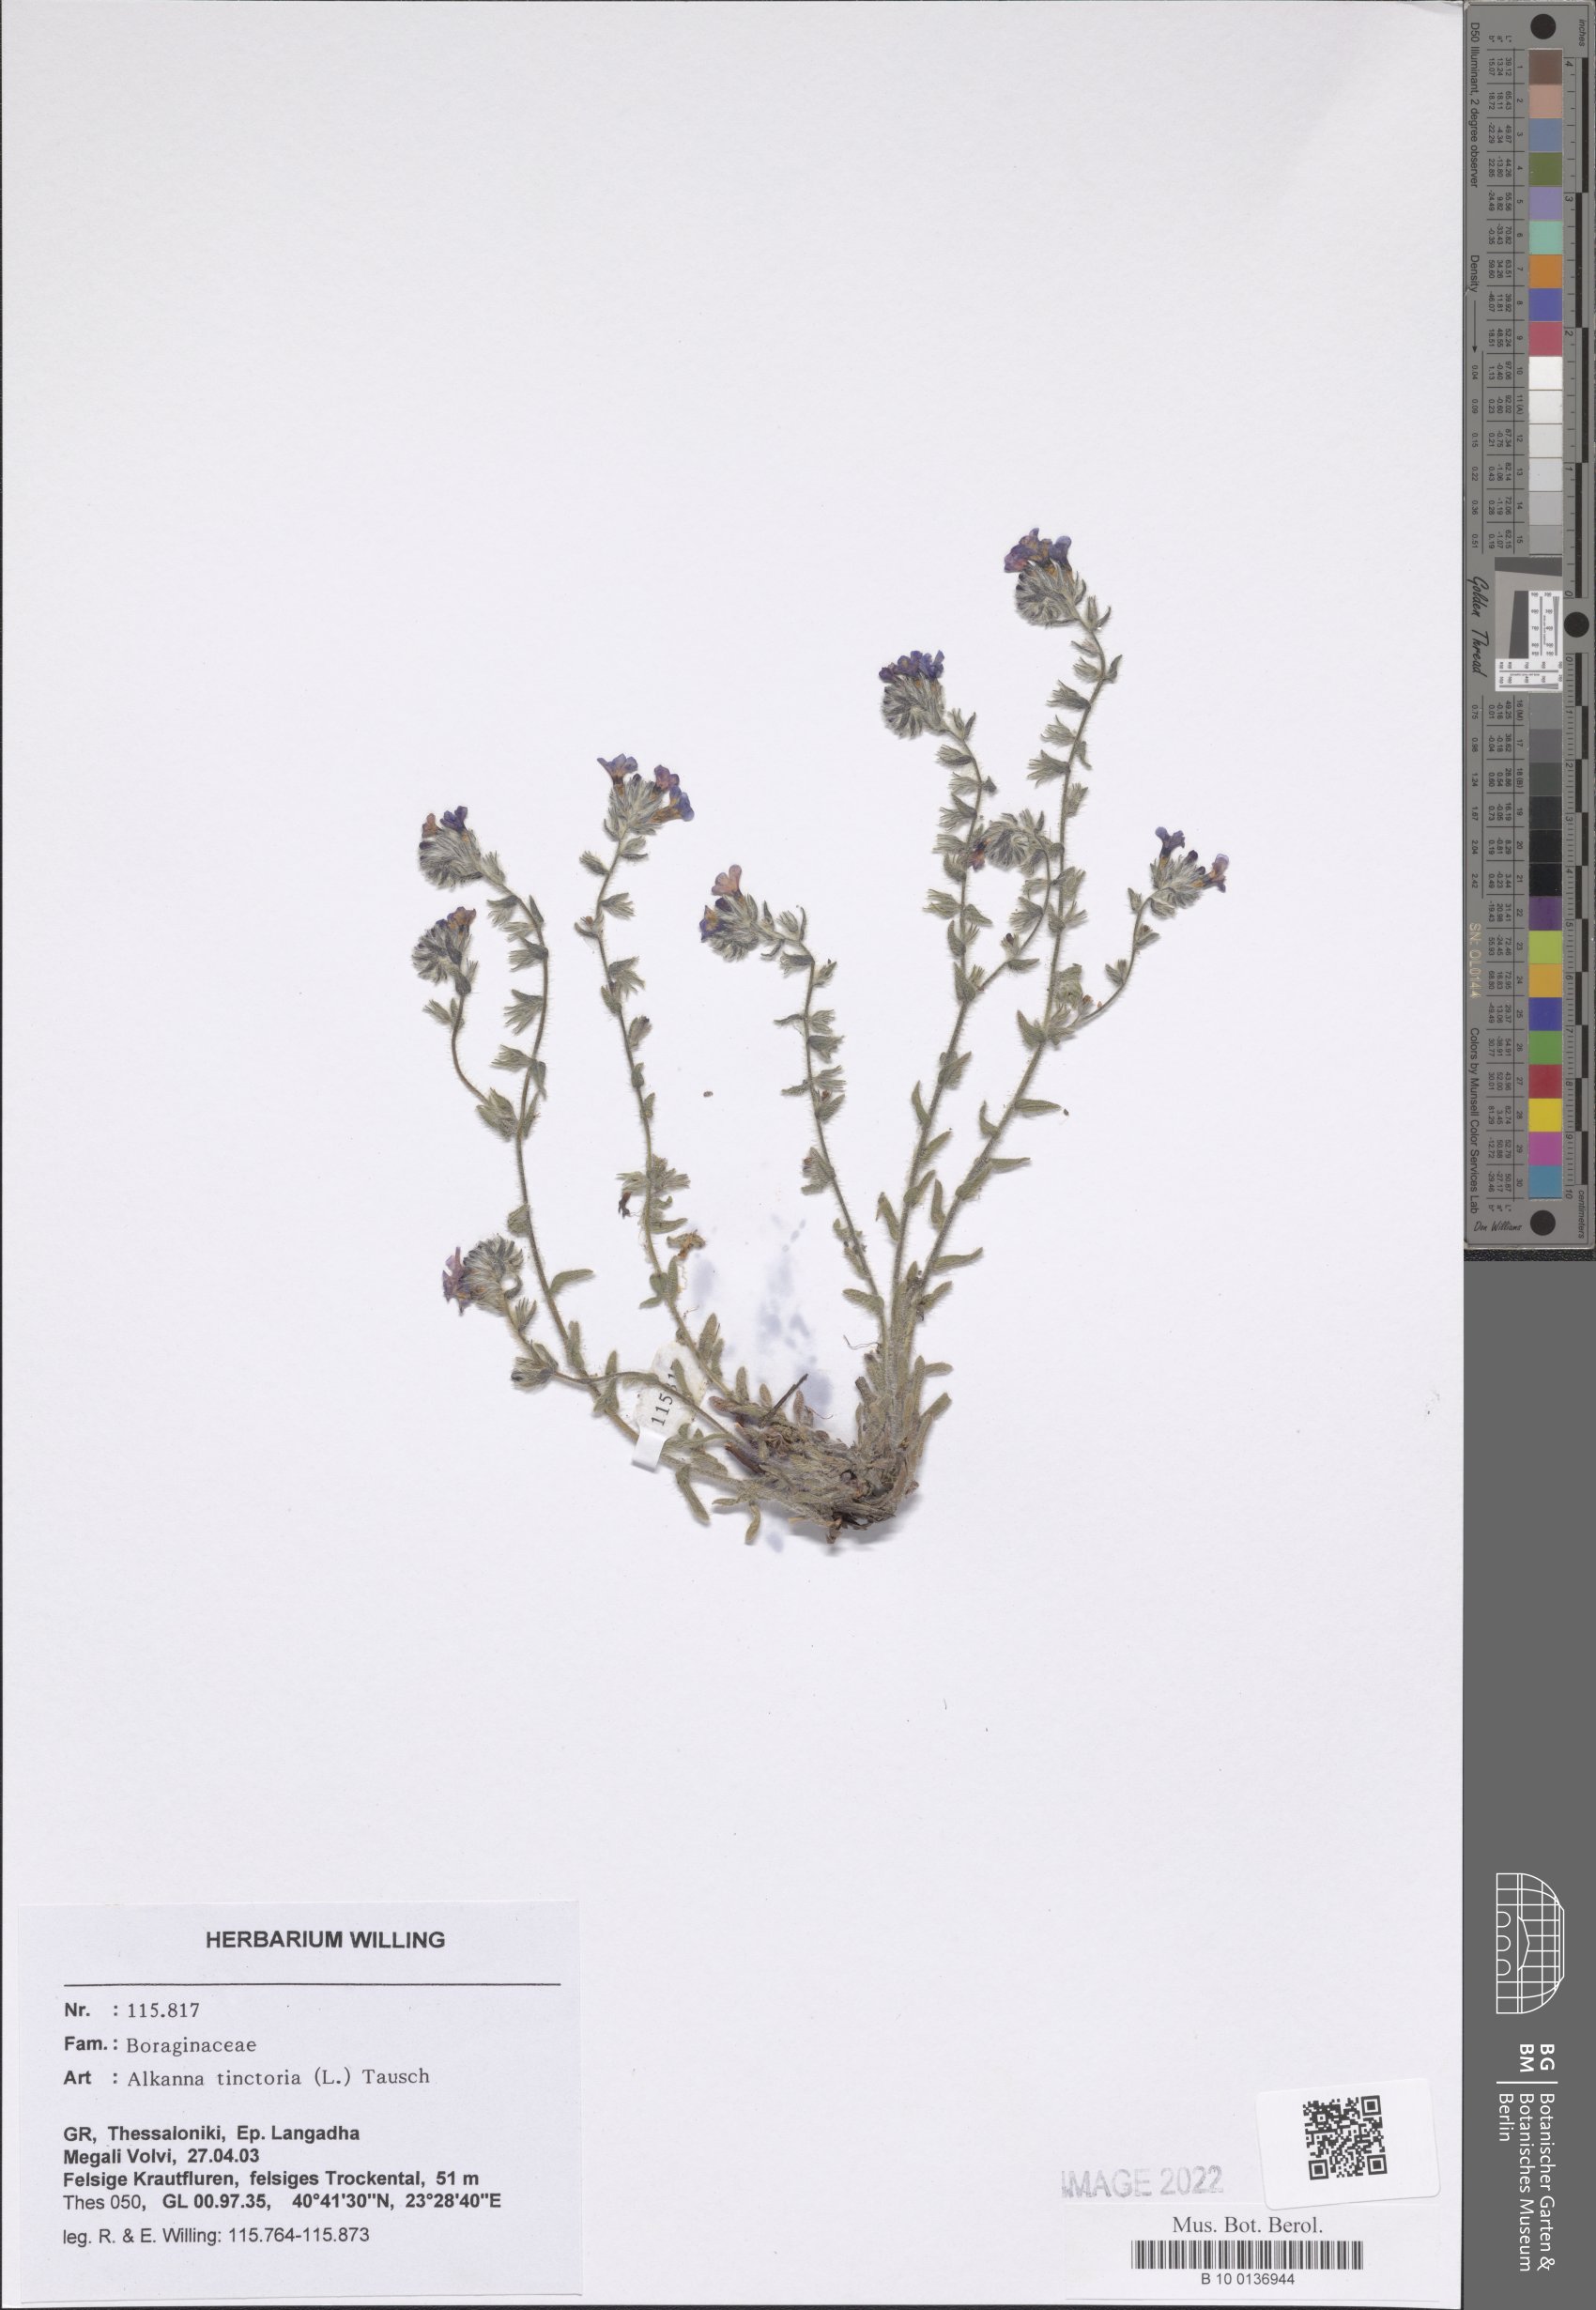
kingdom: Plantae
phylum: Tracheophyta
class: Magnoliopsida
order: Boraginales
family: Boraginaceae
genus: Alkanna
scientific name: Alkanna tinctoria
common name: Dyer's-alkanet
